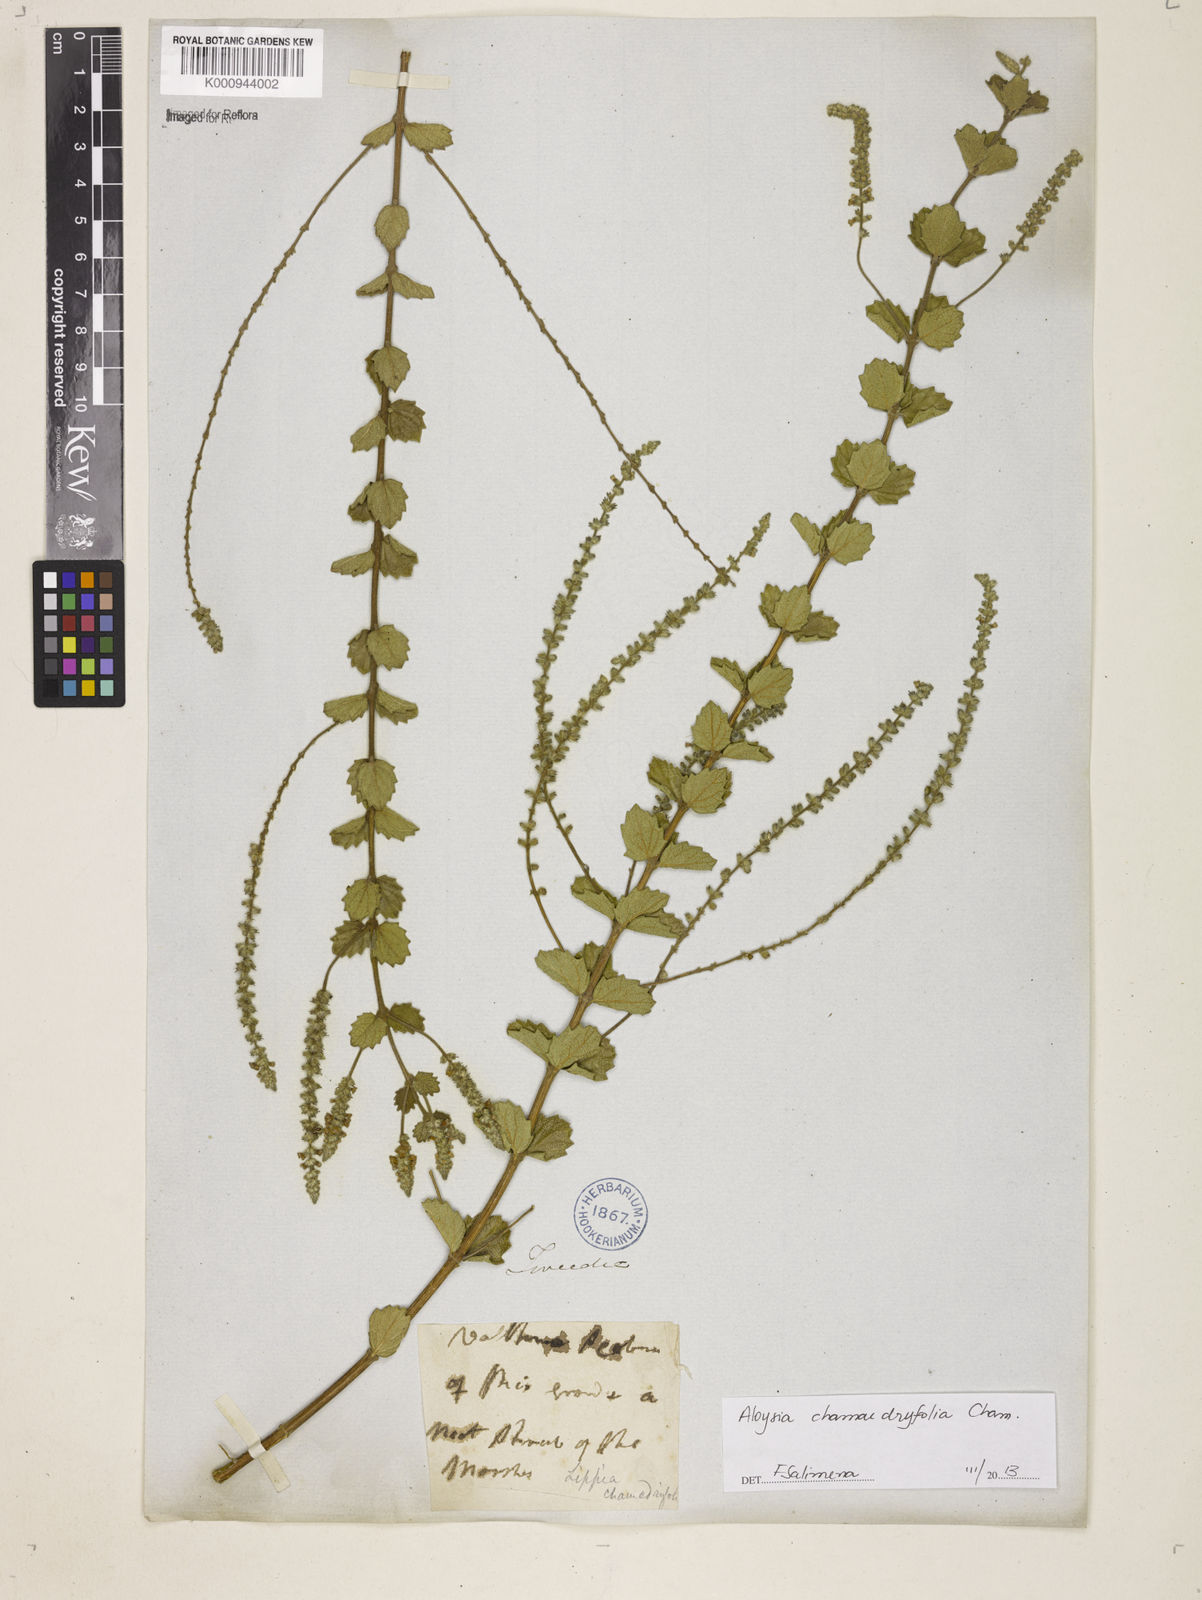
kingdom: Plantae
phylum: Tracheophyta
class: Magnoliopsida
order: Lamiales
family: Verbenaceae
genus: Aloysia
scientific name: Aloysia
